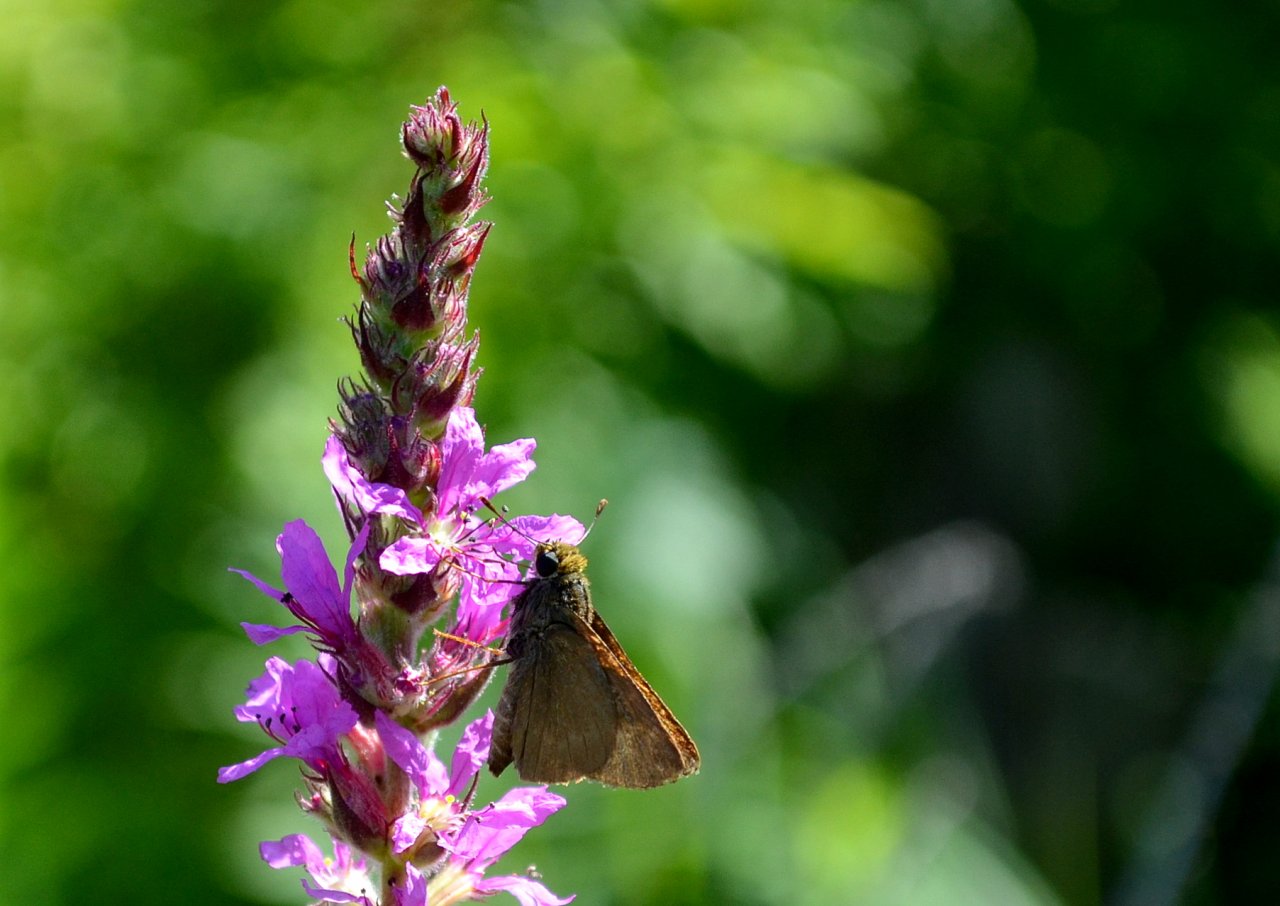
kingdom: Animalia
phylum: Arthropoda
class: Insecta
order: Lepidoptera
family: Hesperiidae
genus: Euphyes
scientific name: Euphyes vestris
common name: Dun Skipper
